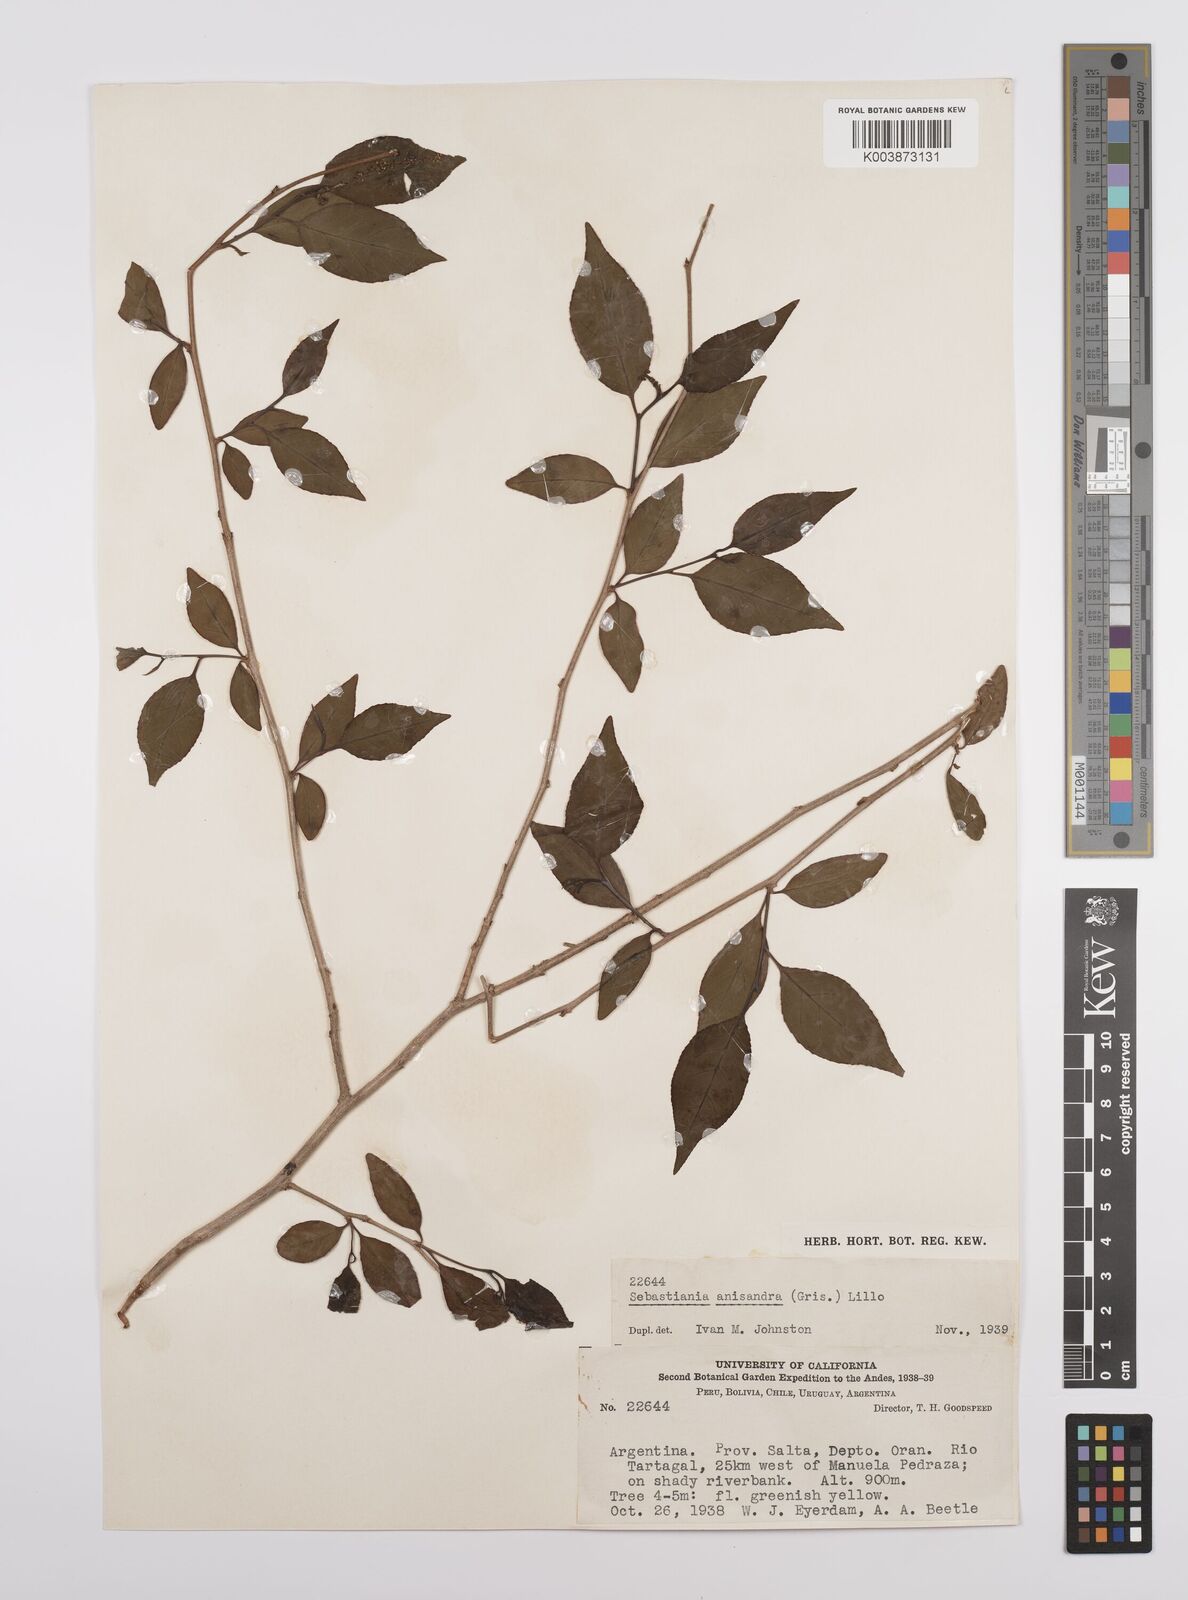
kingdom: Plantae
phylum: Tracheophyta
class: Magnoliopsida
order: Malpighiales
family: Euphorbiaceae
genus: Sebastiania
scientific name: Sebastiania brasiliensis
